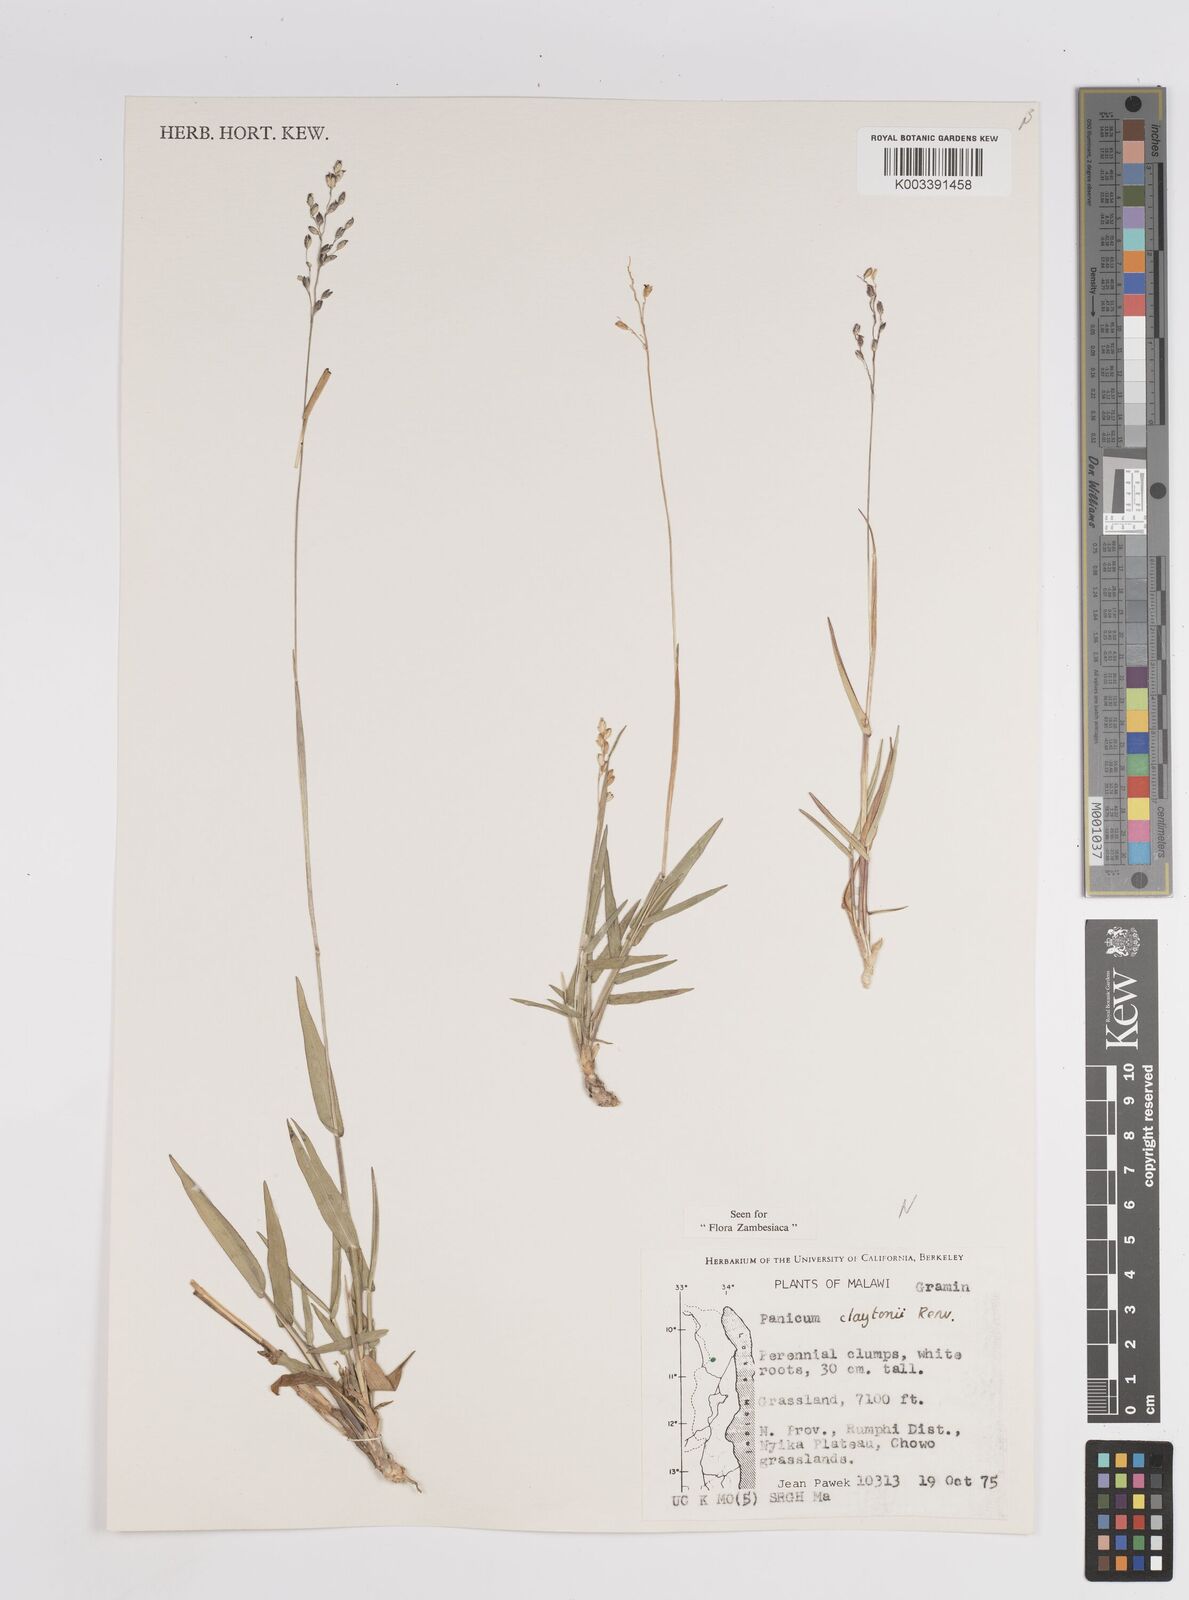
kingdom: Plantae
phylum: Tracheophyta
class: Liliopsida
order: Poales
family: Poaceae
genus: Adenochloa
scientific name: Adenochloa claytonii
